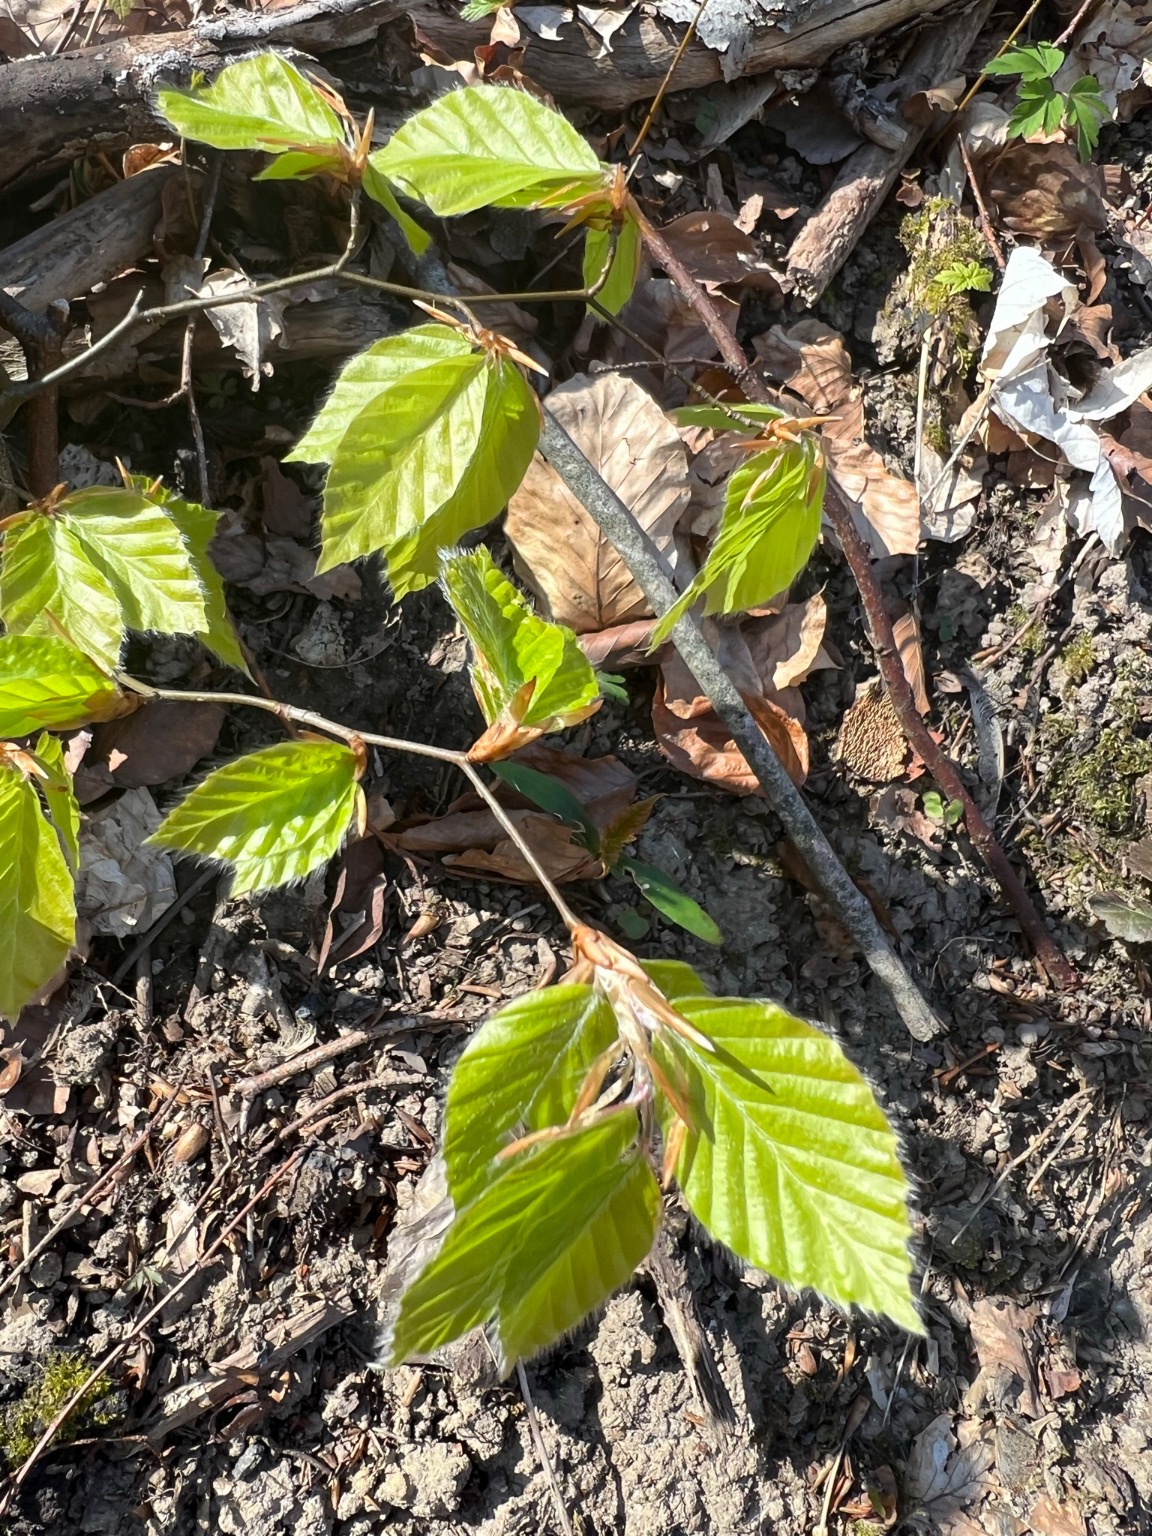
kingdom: Plantae
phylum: Tracheophyta
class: Magnoliopsida
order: Fagales
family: Fagaceae
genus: Fagus
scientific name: Fagus sylvatica
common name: Bøg
